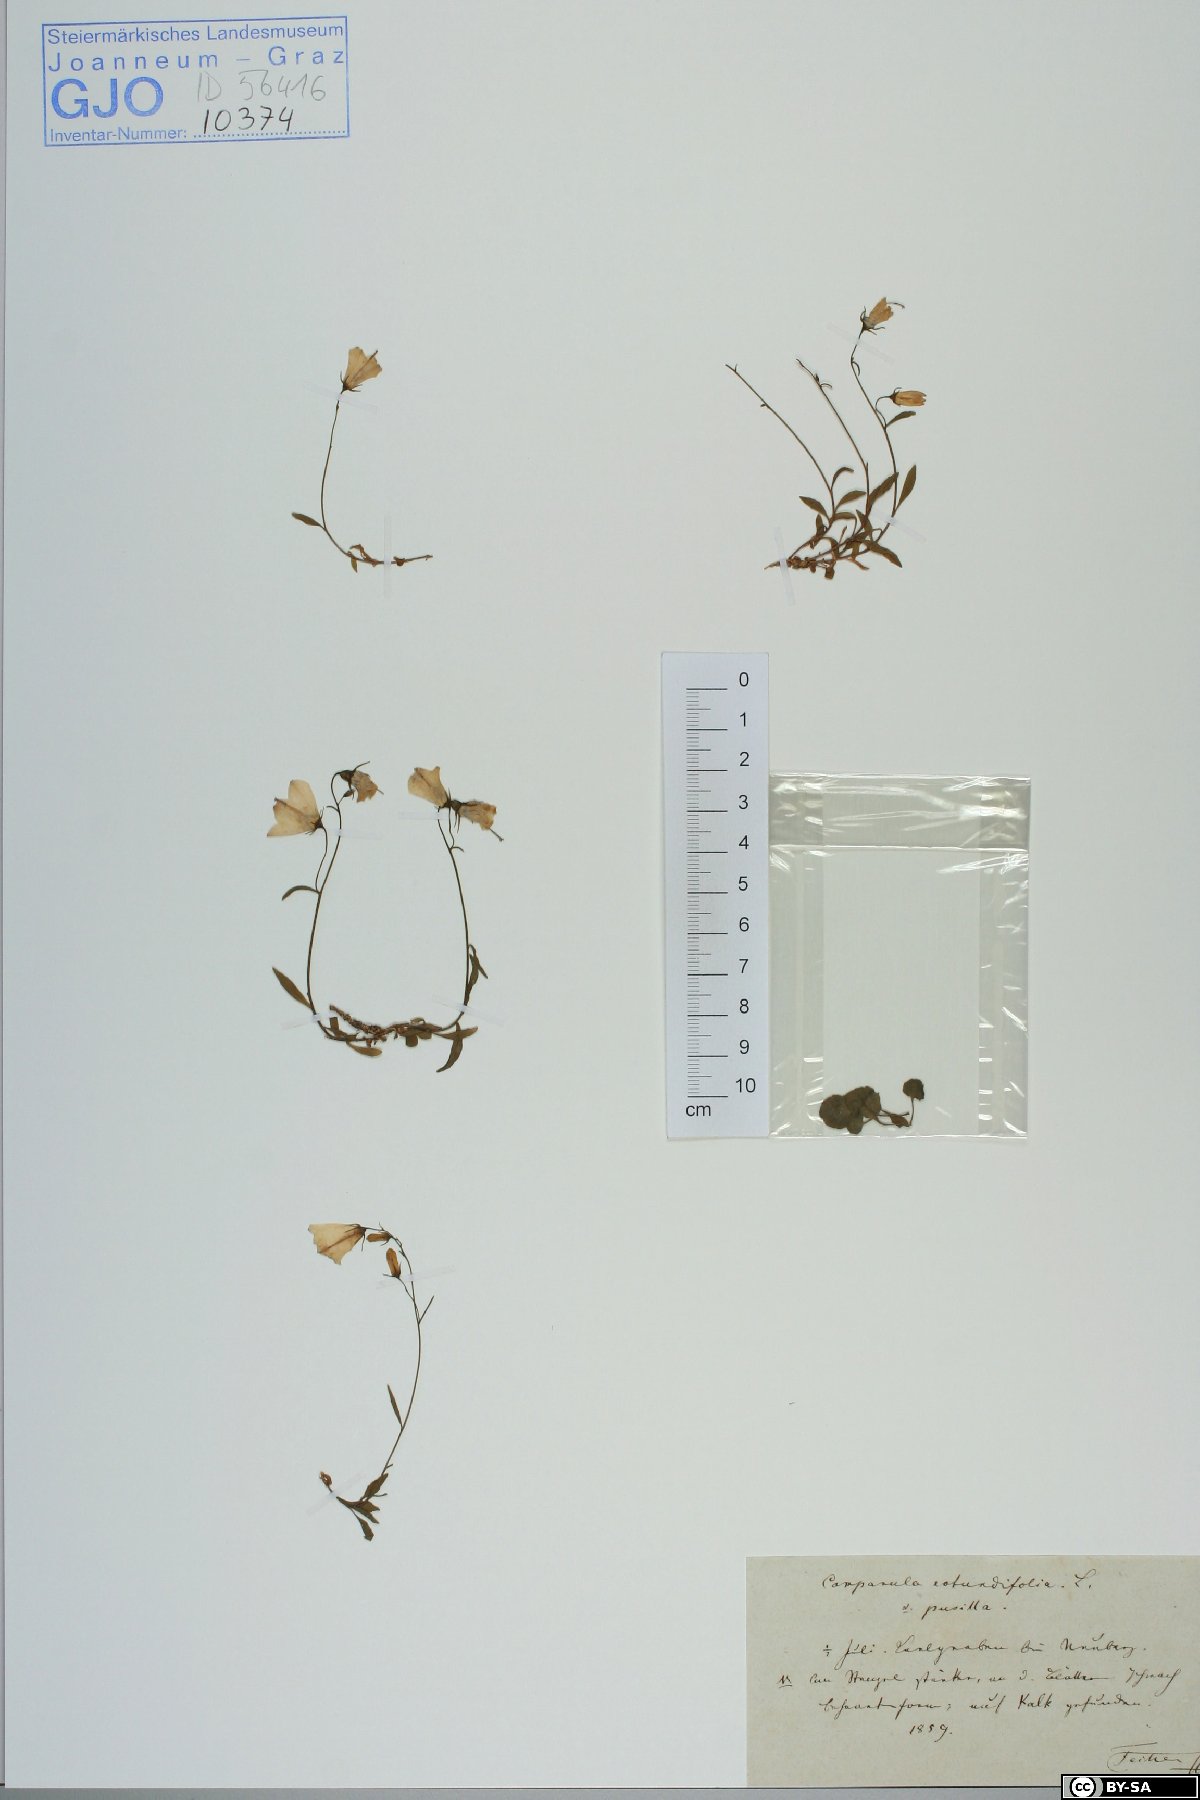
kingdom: Plantae
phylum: Tracheophyta
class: Magnoliopsida
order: Asterales
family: Campanulaceae
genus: Campanula
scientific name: Campanula rotundifolia
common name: Harebell
